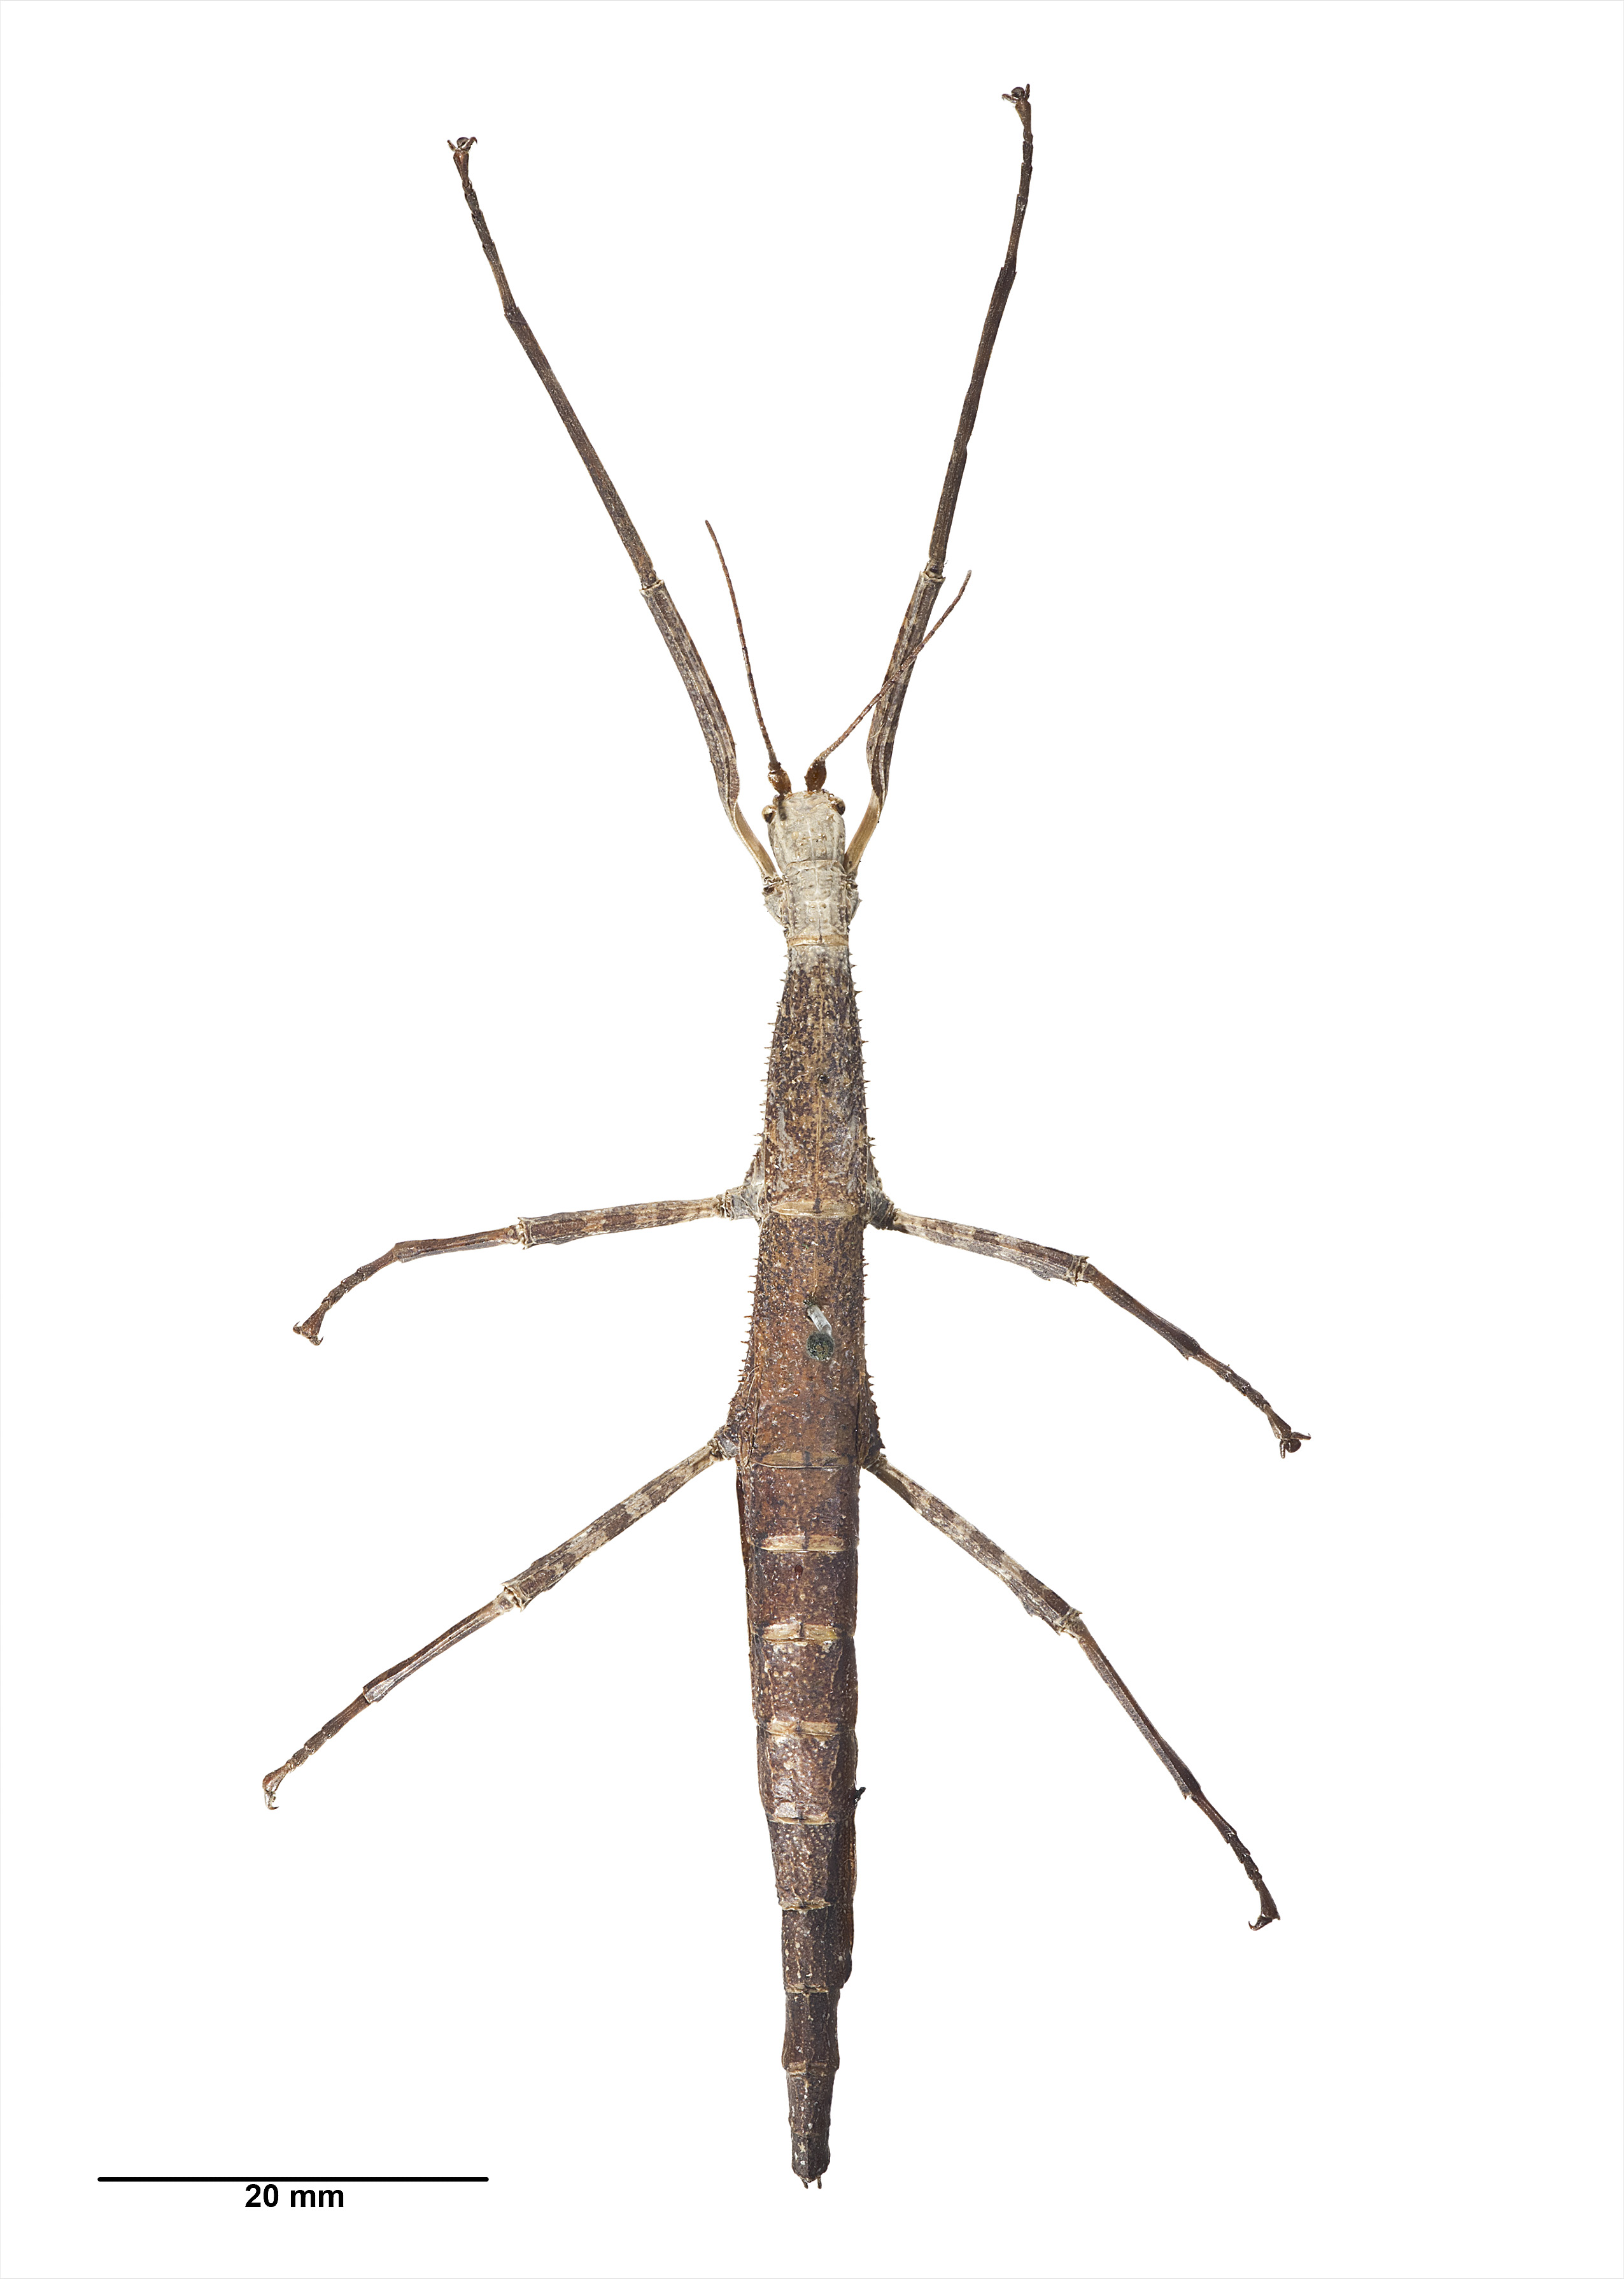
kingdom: Animalia
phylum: Arthropoda
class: Insecta
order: Phasmida
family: Phasmatidae
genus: Pseudoclitarchus
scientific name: Pseudoclitarchus sentus
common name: The three kings stick insect
